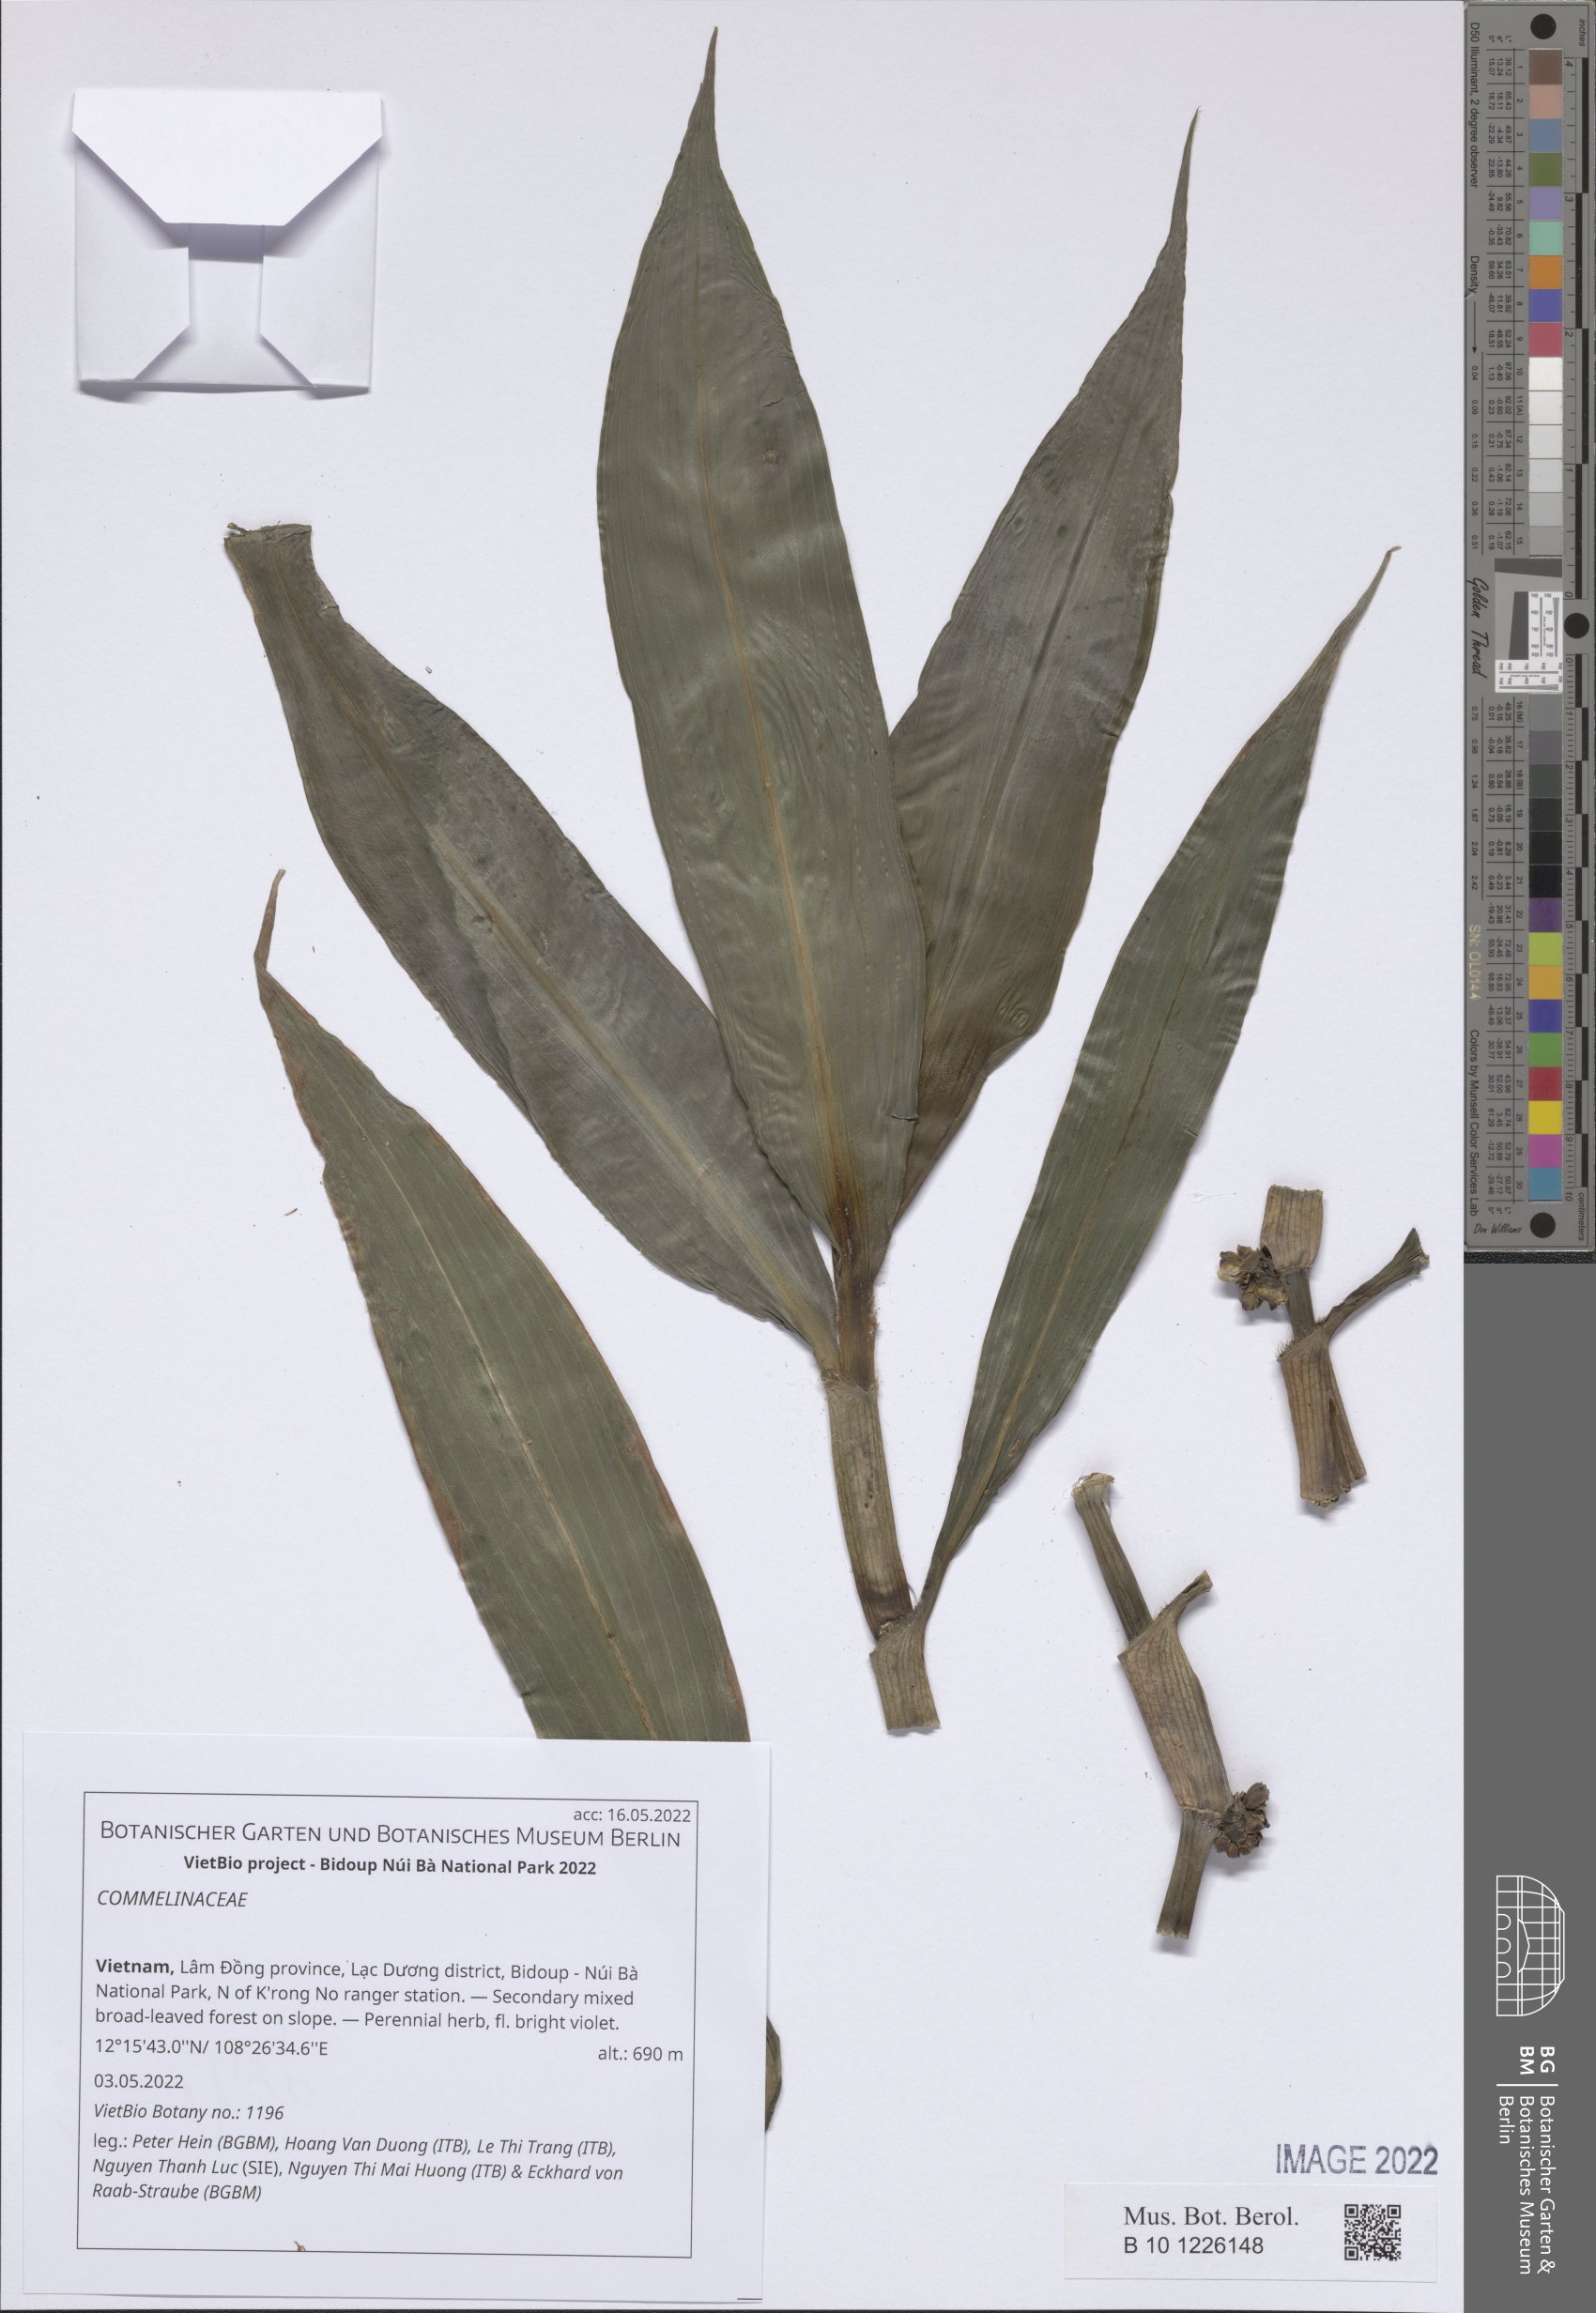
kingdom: Plantae
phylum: Tracheophyta
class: Liliopsida
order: Commelinales
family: Commelinaceae
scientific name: Commelinaceae
